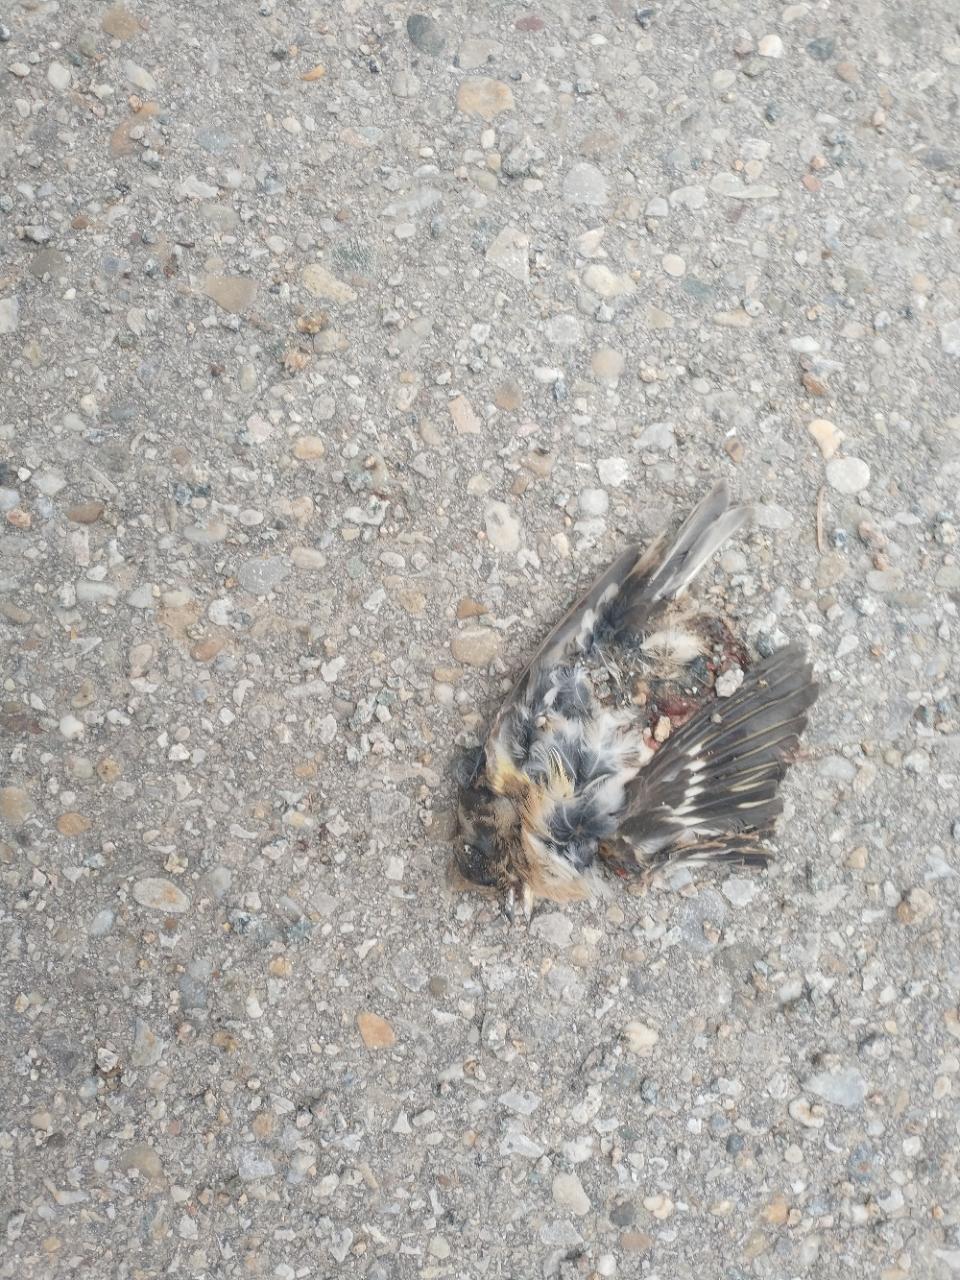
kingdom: Animalia
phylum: Chordata
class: Aves
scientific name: Aves
